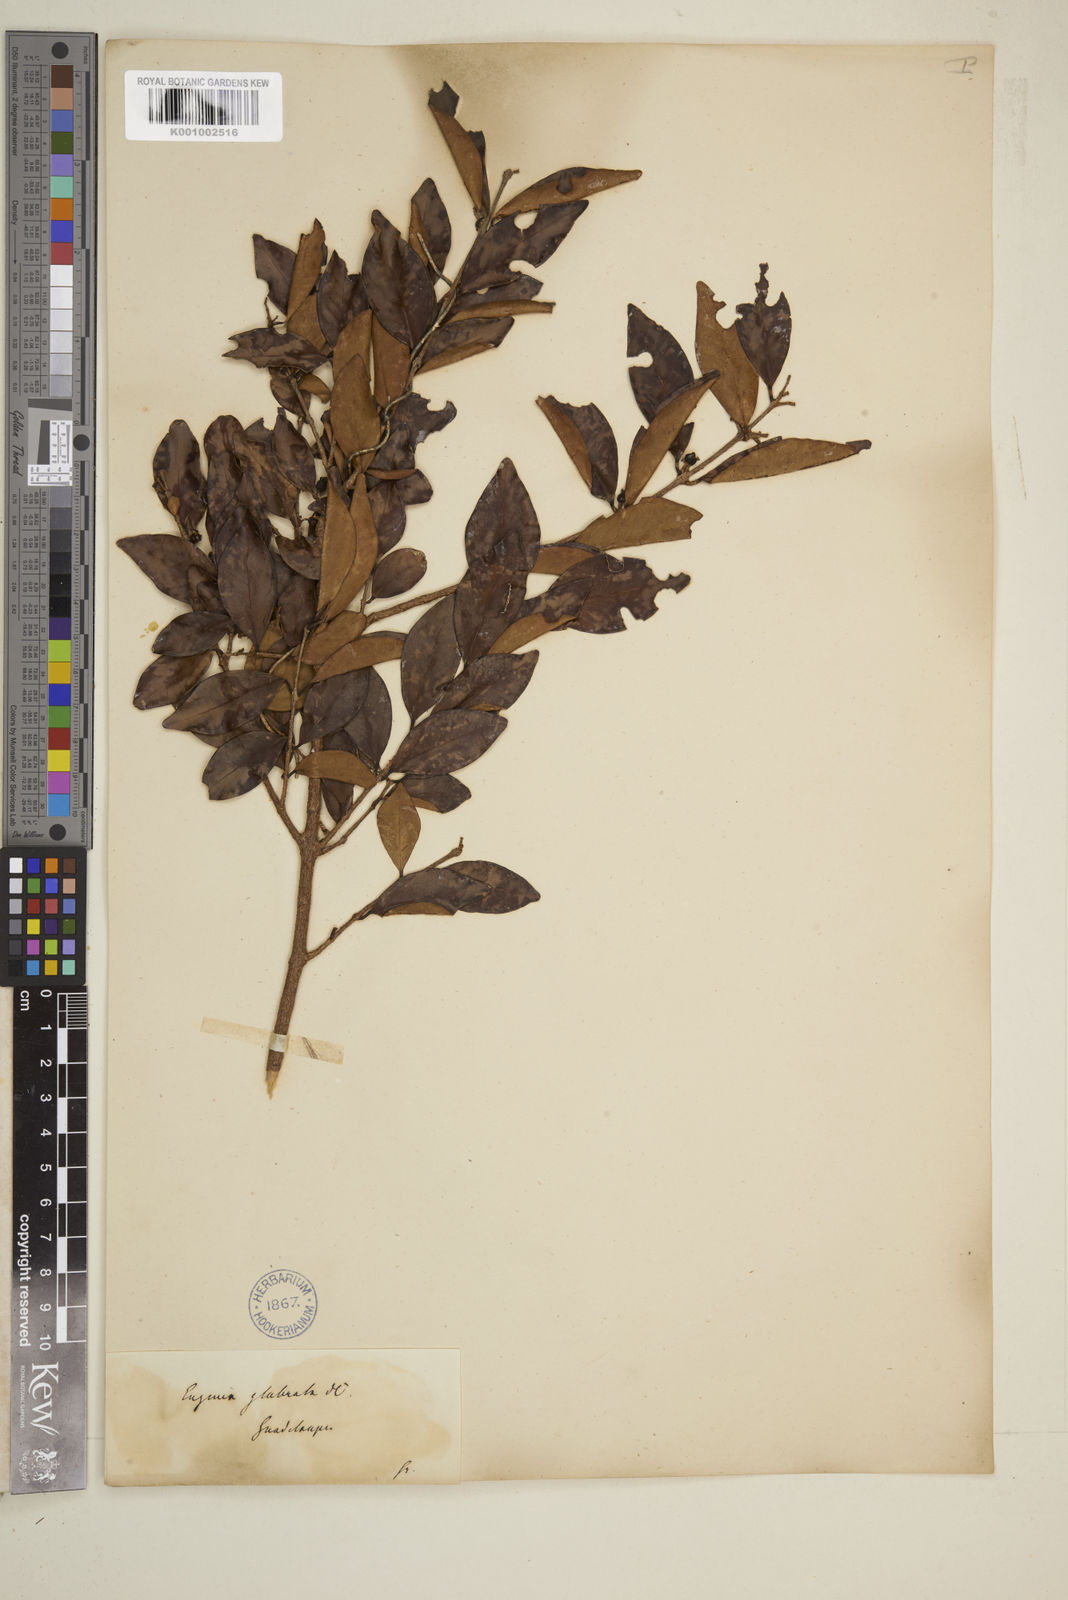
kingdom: Plantae
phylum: Tracheophyta
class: Magnoliopsida
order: Myrtales
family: Myrtaceae
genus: Eugenia
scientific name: Eugenia glabrata
